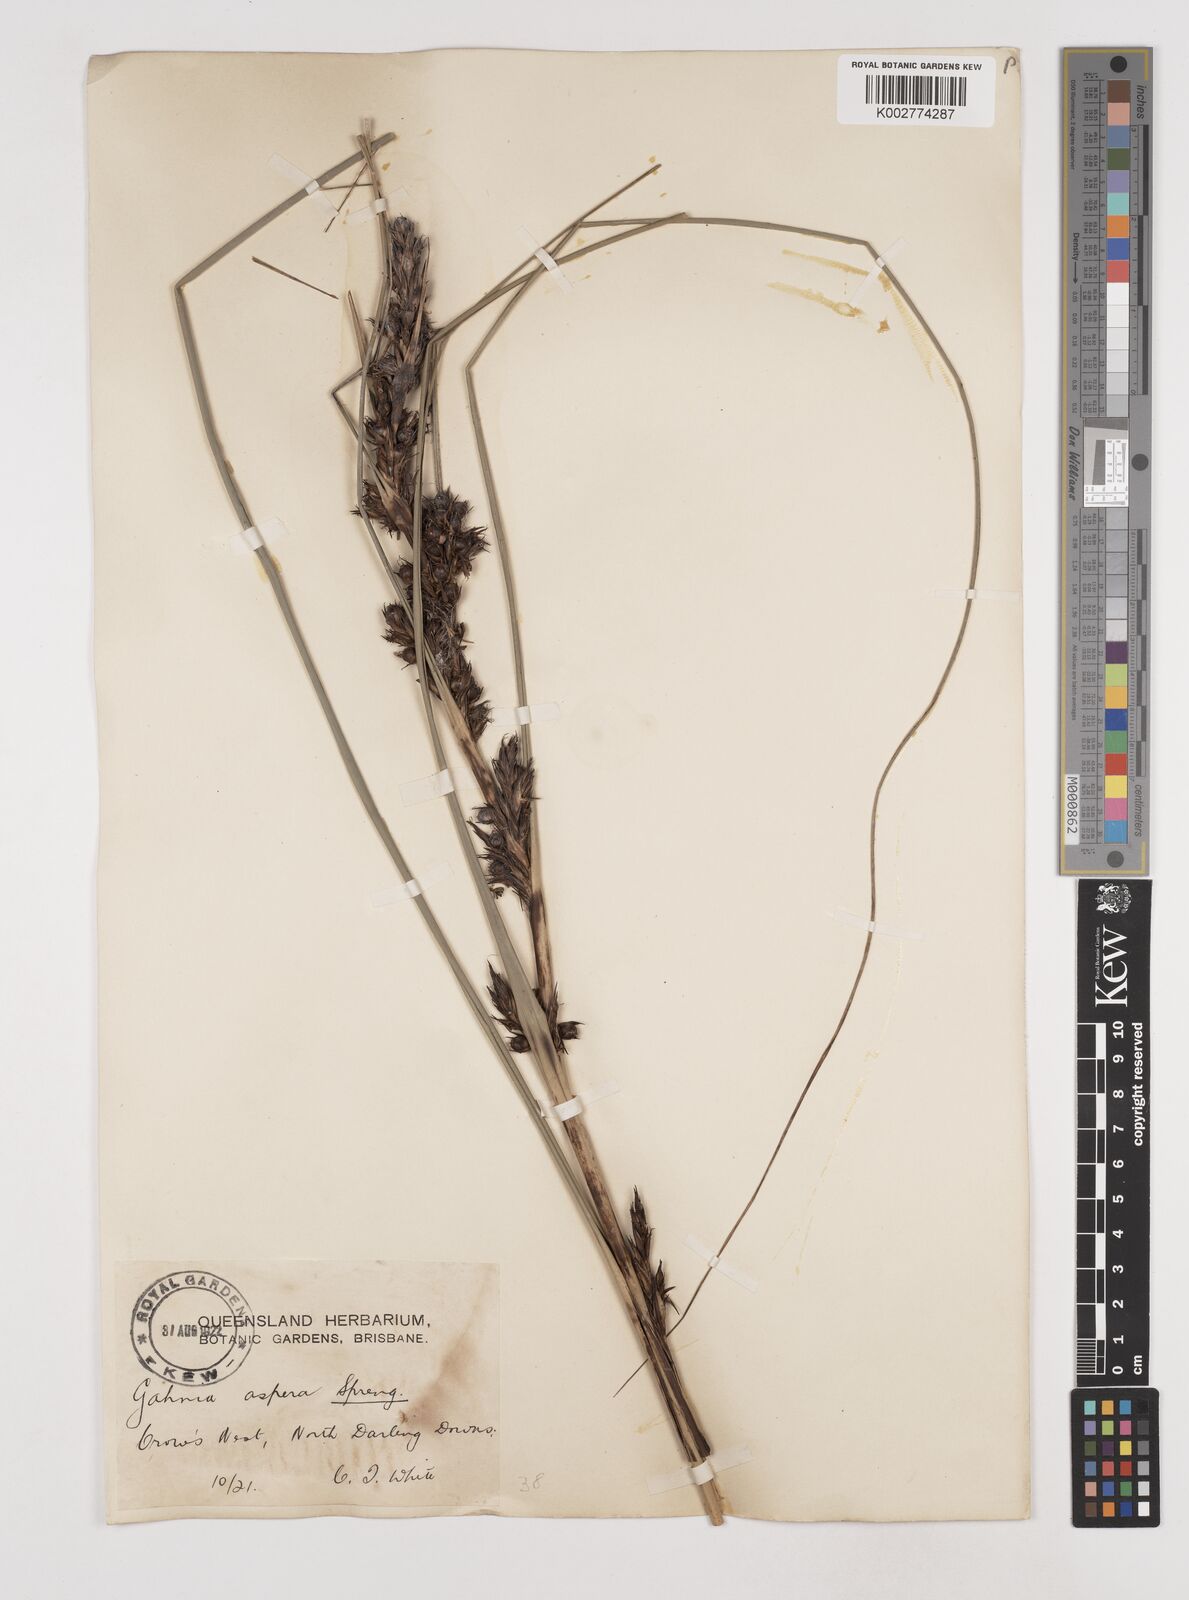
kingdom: Plantae
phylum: Tracheophyta
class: Liliopsida
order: Poales
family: Cyperaceae
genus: Gahnia
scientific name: Gahnia aspera
